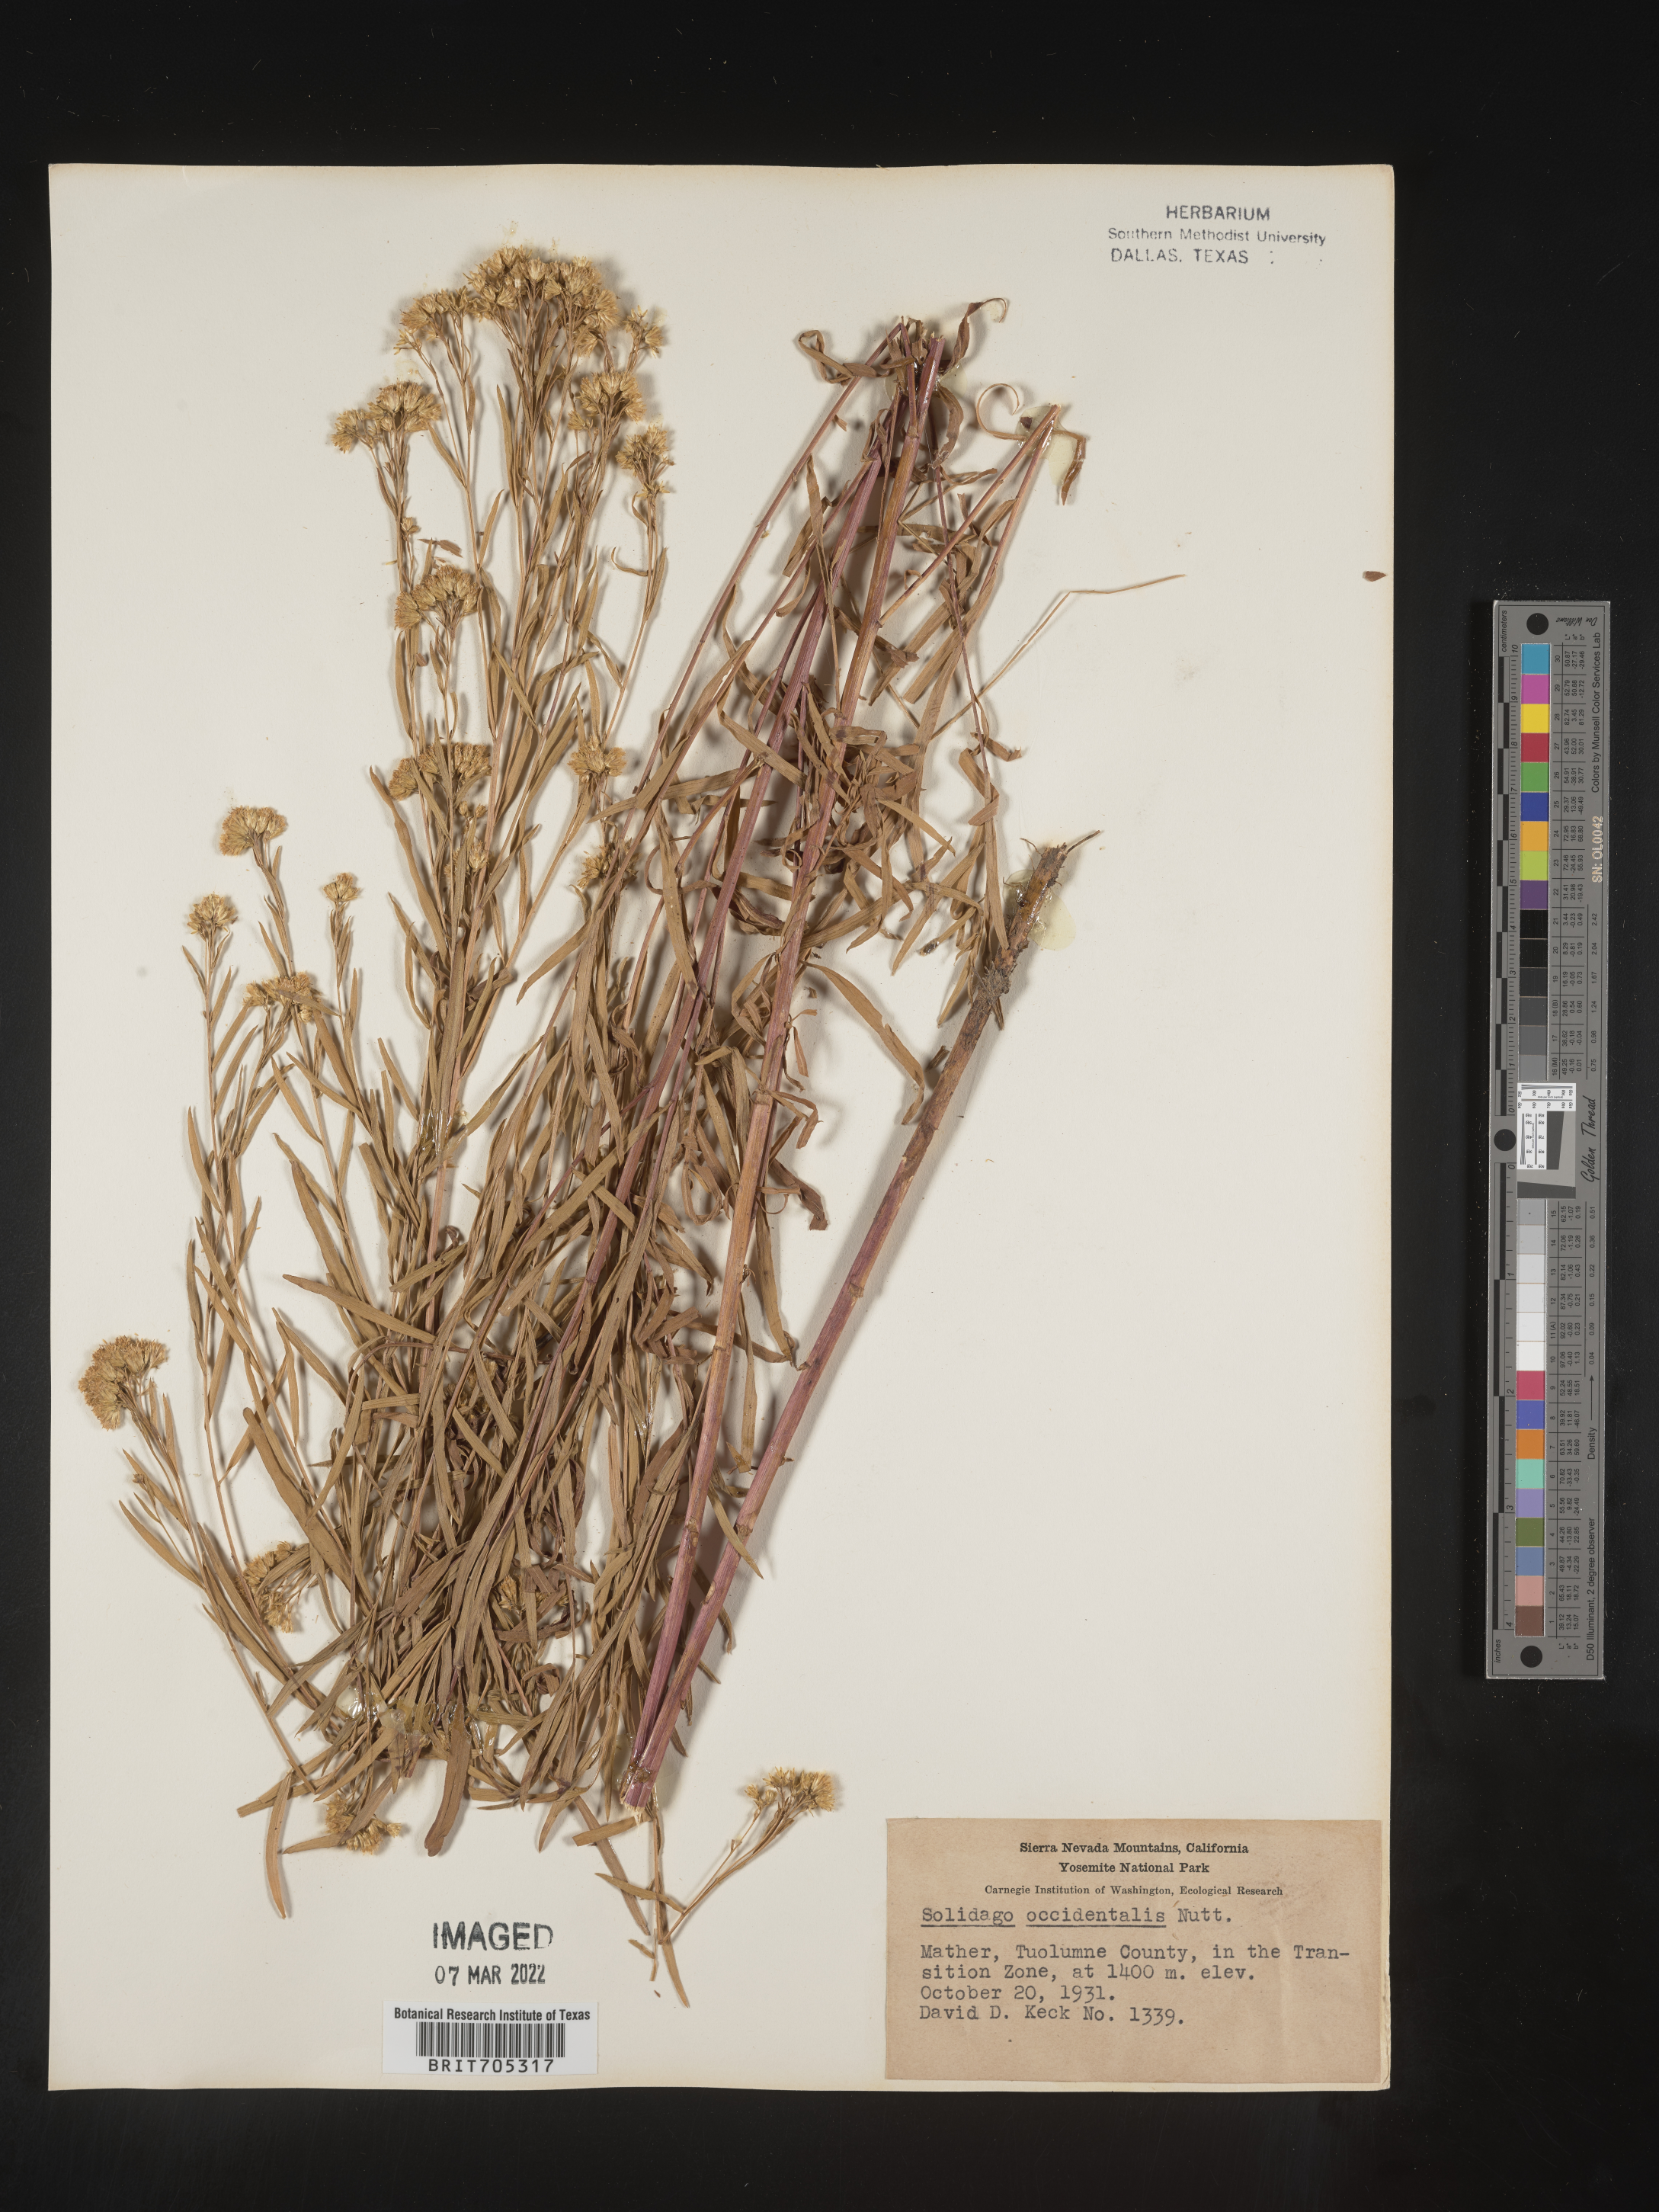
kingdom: Plantae
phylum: Tracheophyta
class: Magnoliopsida
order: Asterales
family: Asteraceae
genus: Euthamia
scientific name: Euthamia occidentalis
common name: Western goldentop
